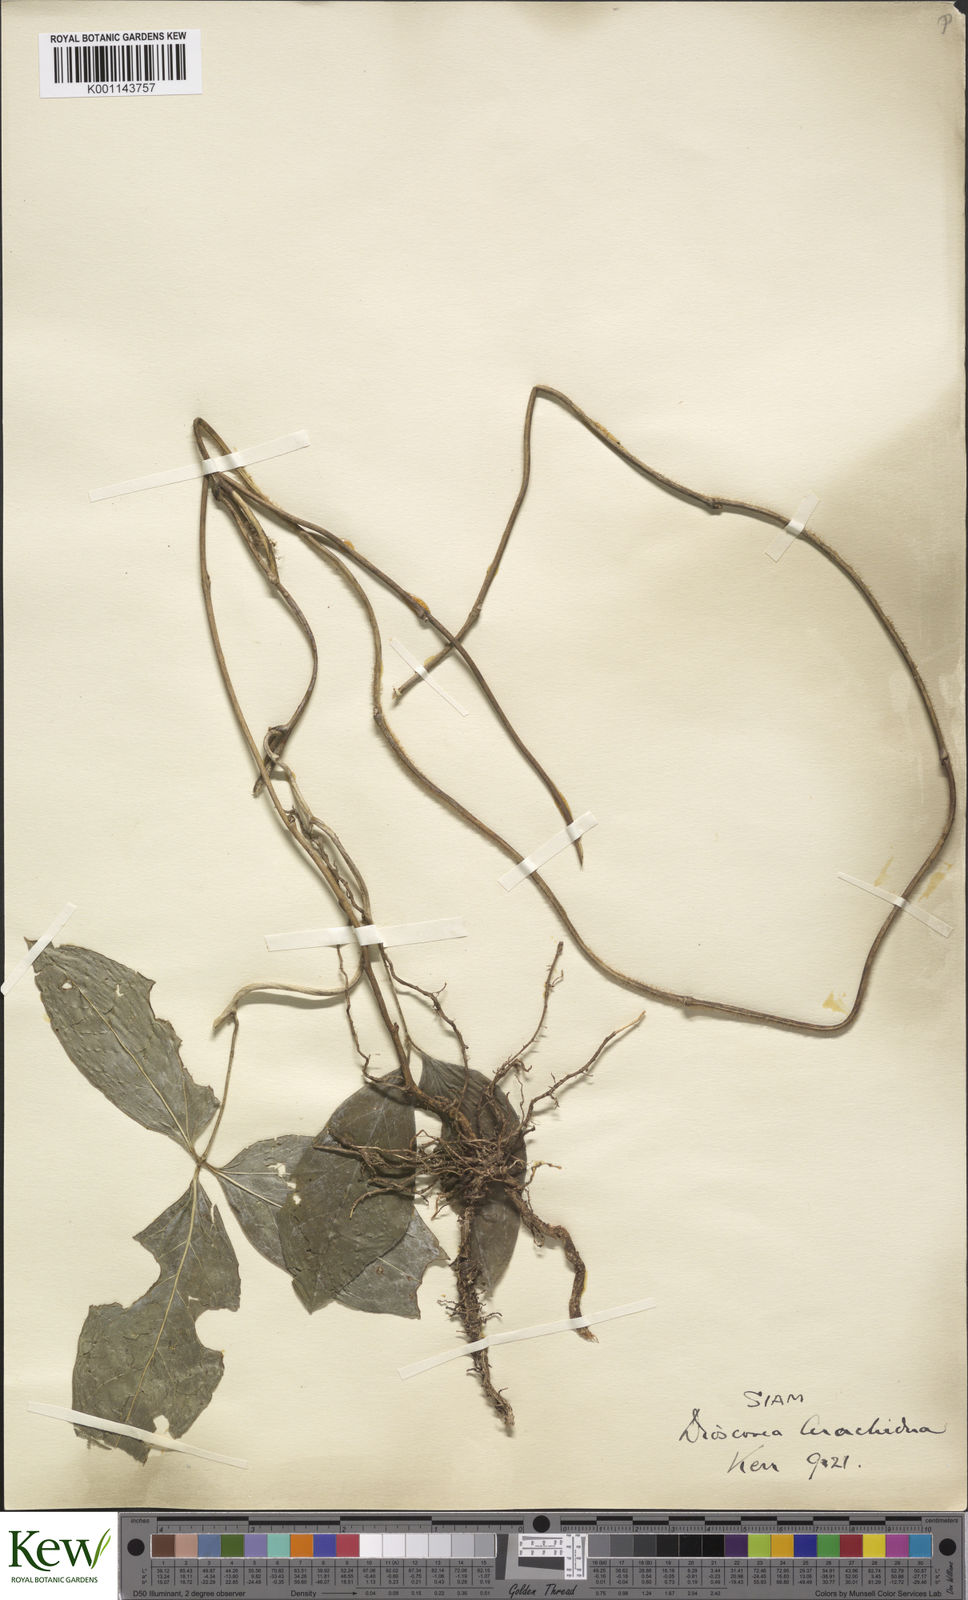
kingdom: Plantae
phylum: Tracheophyta
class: Liliopsida
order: Dioscoreales
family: Dioscoreaceae
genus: Dioscorea
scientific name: Dioscorea arachidna
